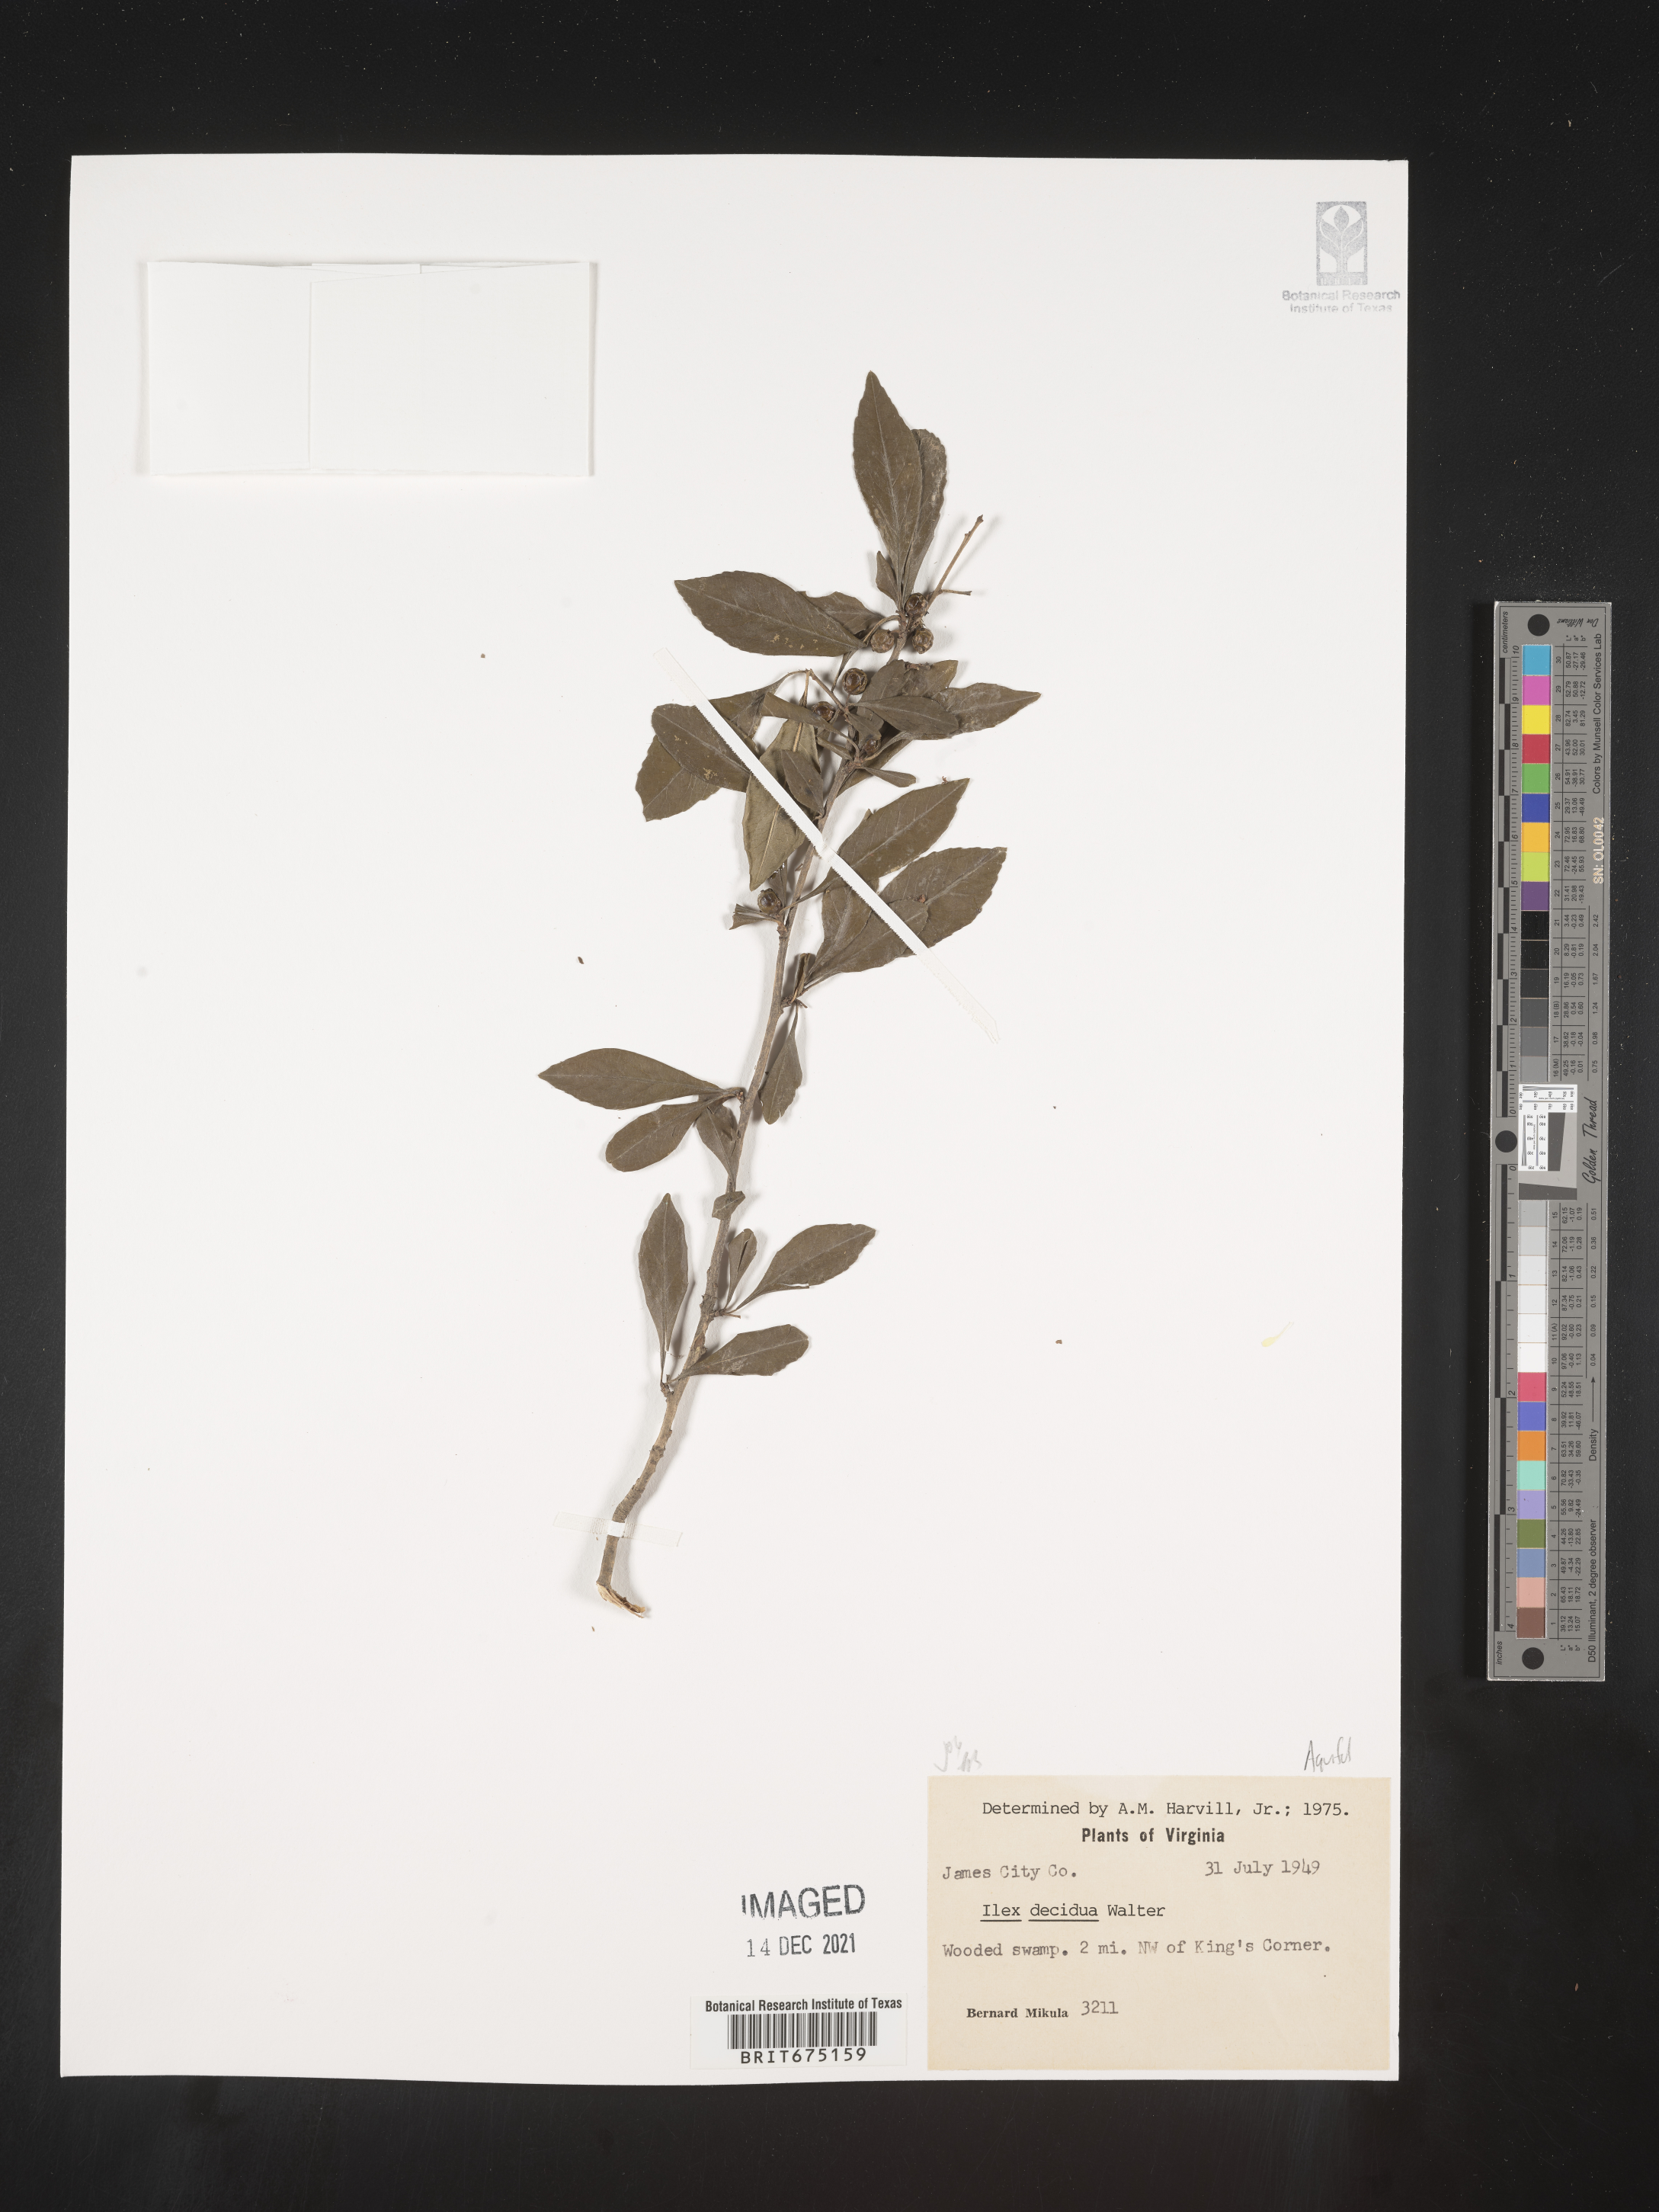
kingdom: Plantae
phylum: Tracheophyta
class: Magnoliopsida
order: Aquifoliales
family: Aquifoliaceae
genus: Ilex
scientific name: Ilex decidua
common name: Possum-haw
